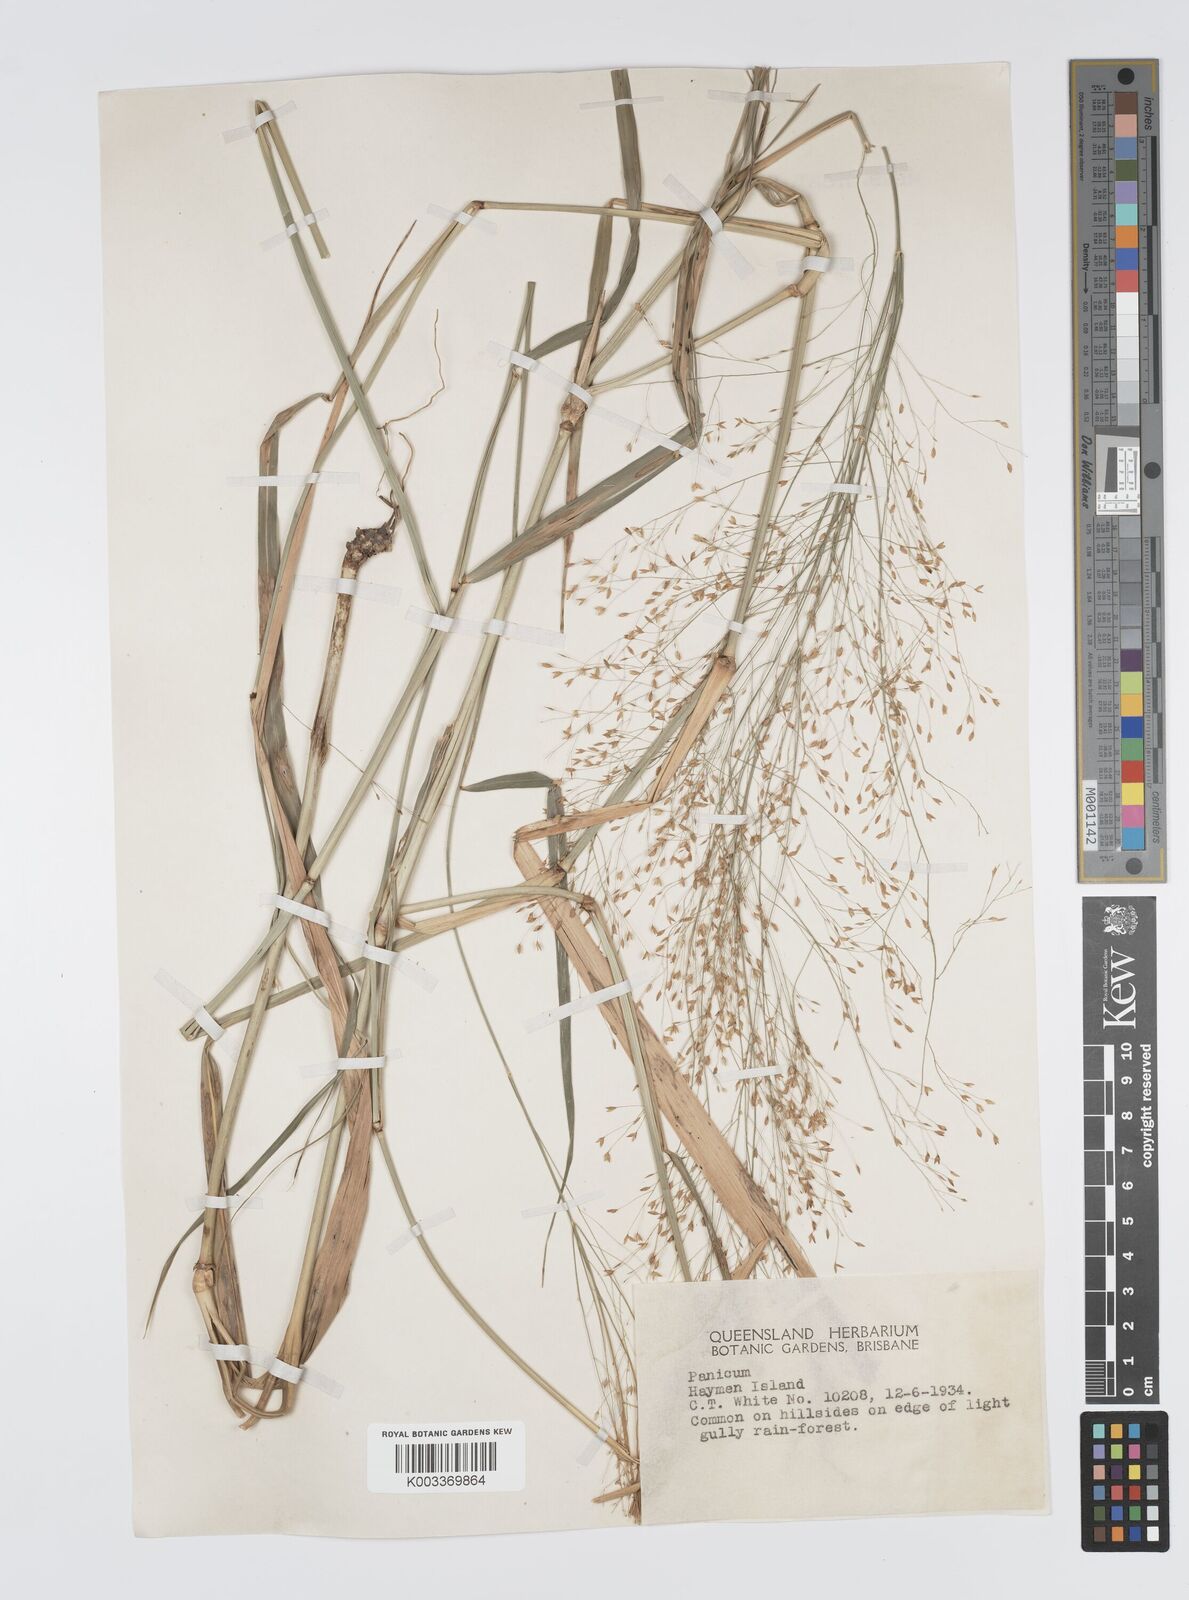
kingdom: Plantae
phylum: Tracheophyta
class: Liliopsida
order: Poales
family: Poaceae
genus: Panicum
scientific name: Panicum mitchellii
